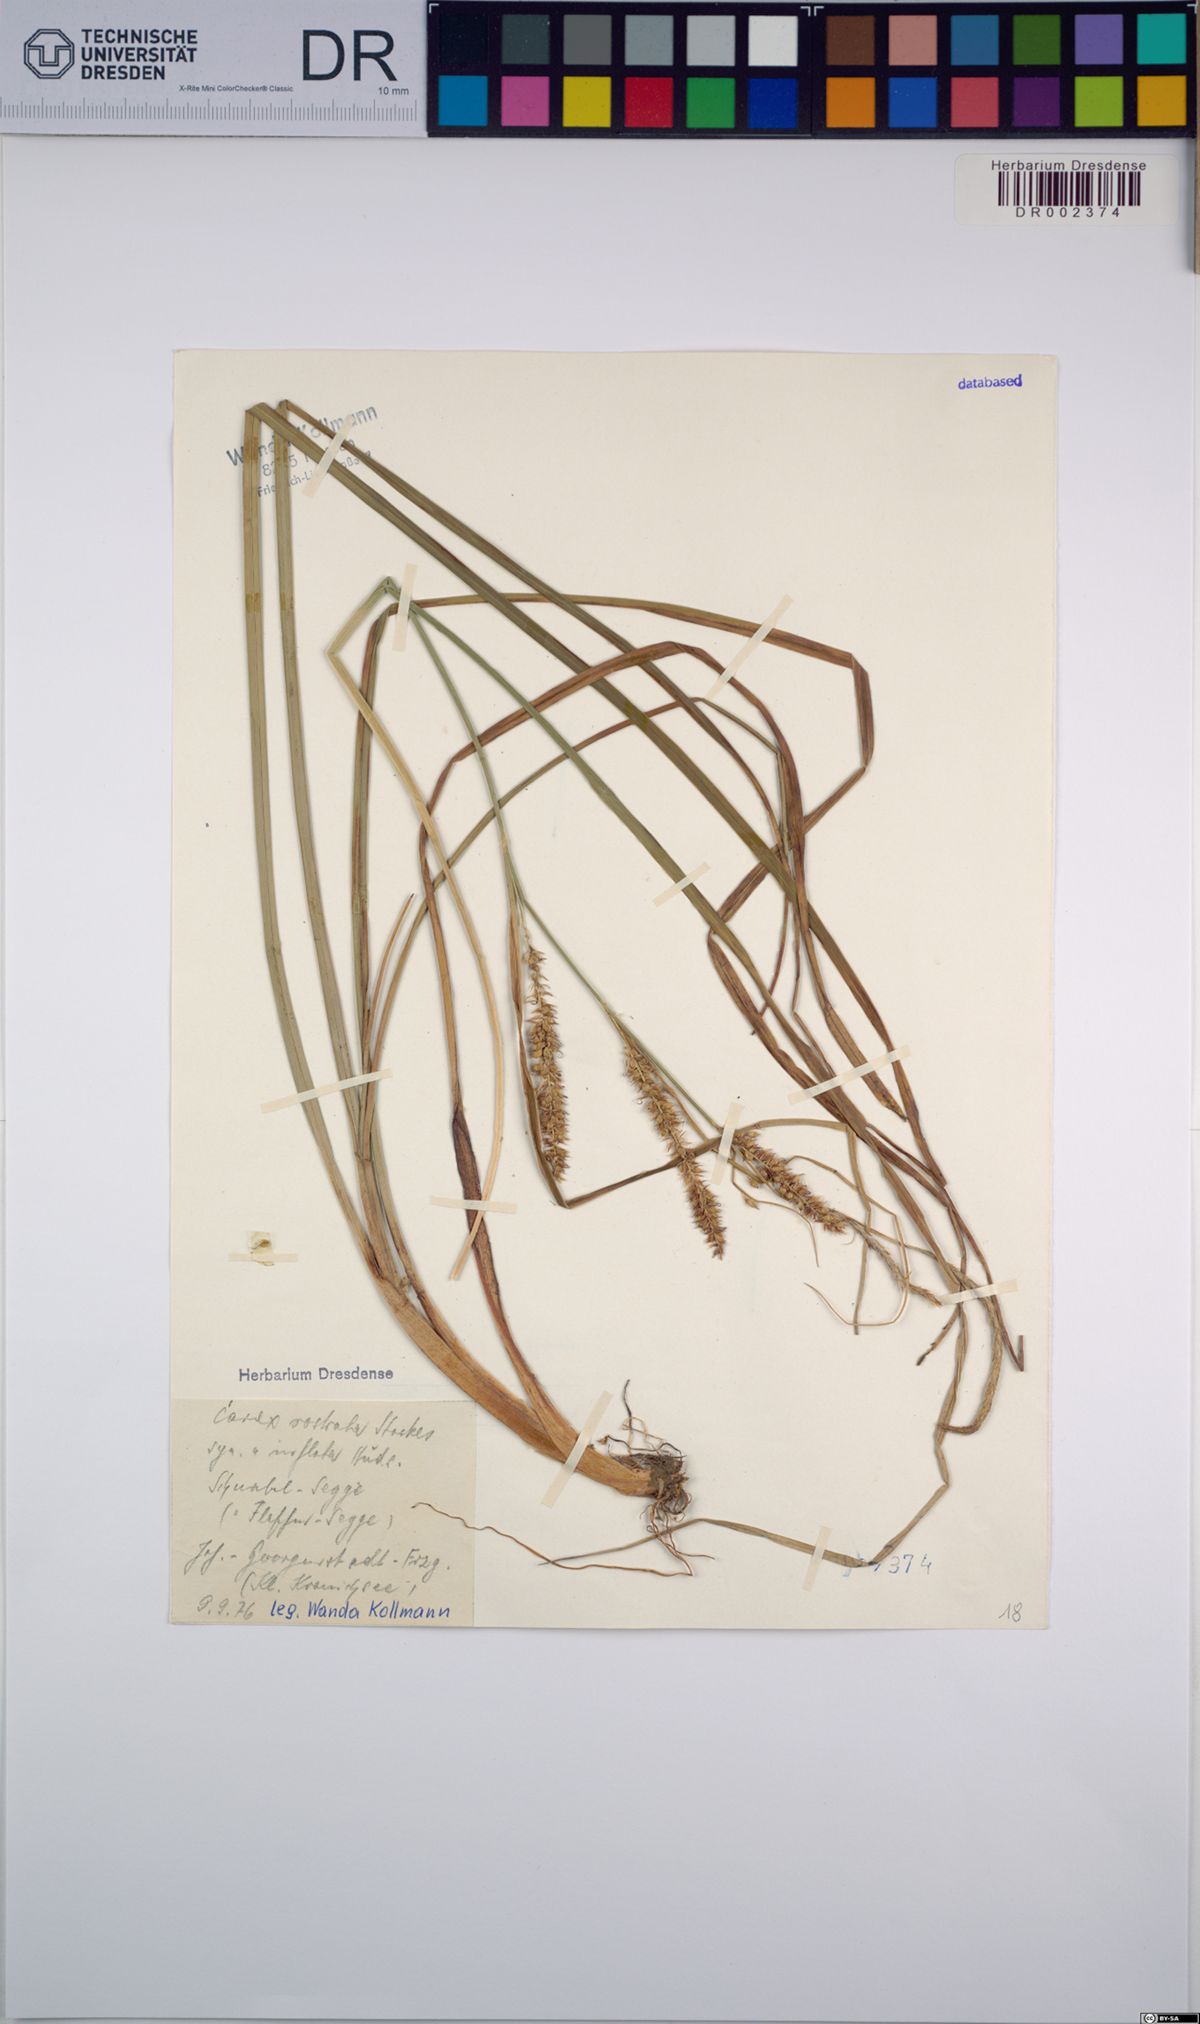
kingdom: Plantae
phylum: Tracheophyta
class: Liliopsida
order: Poales
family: Cyperaceae
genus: Carex
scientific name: Carex rostrata
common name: Bottle sedge
